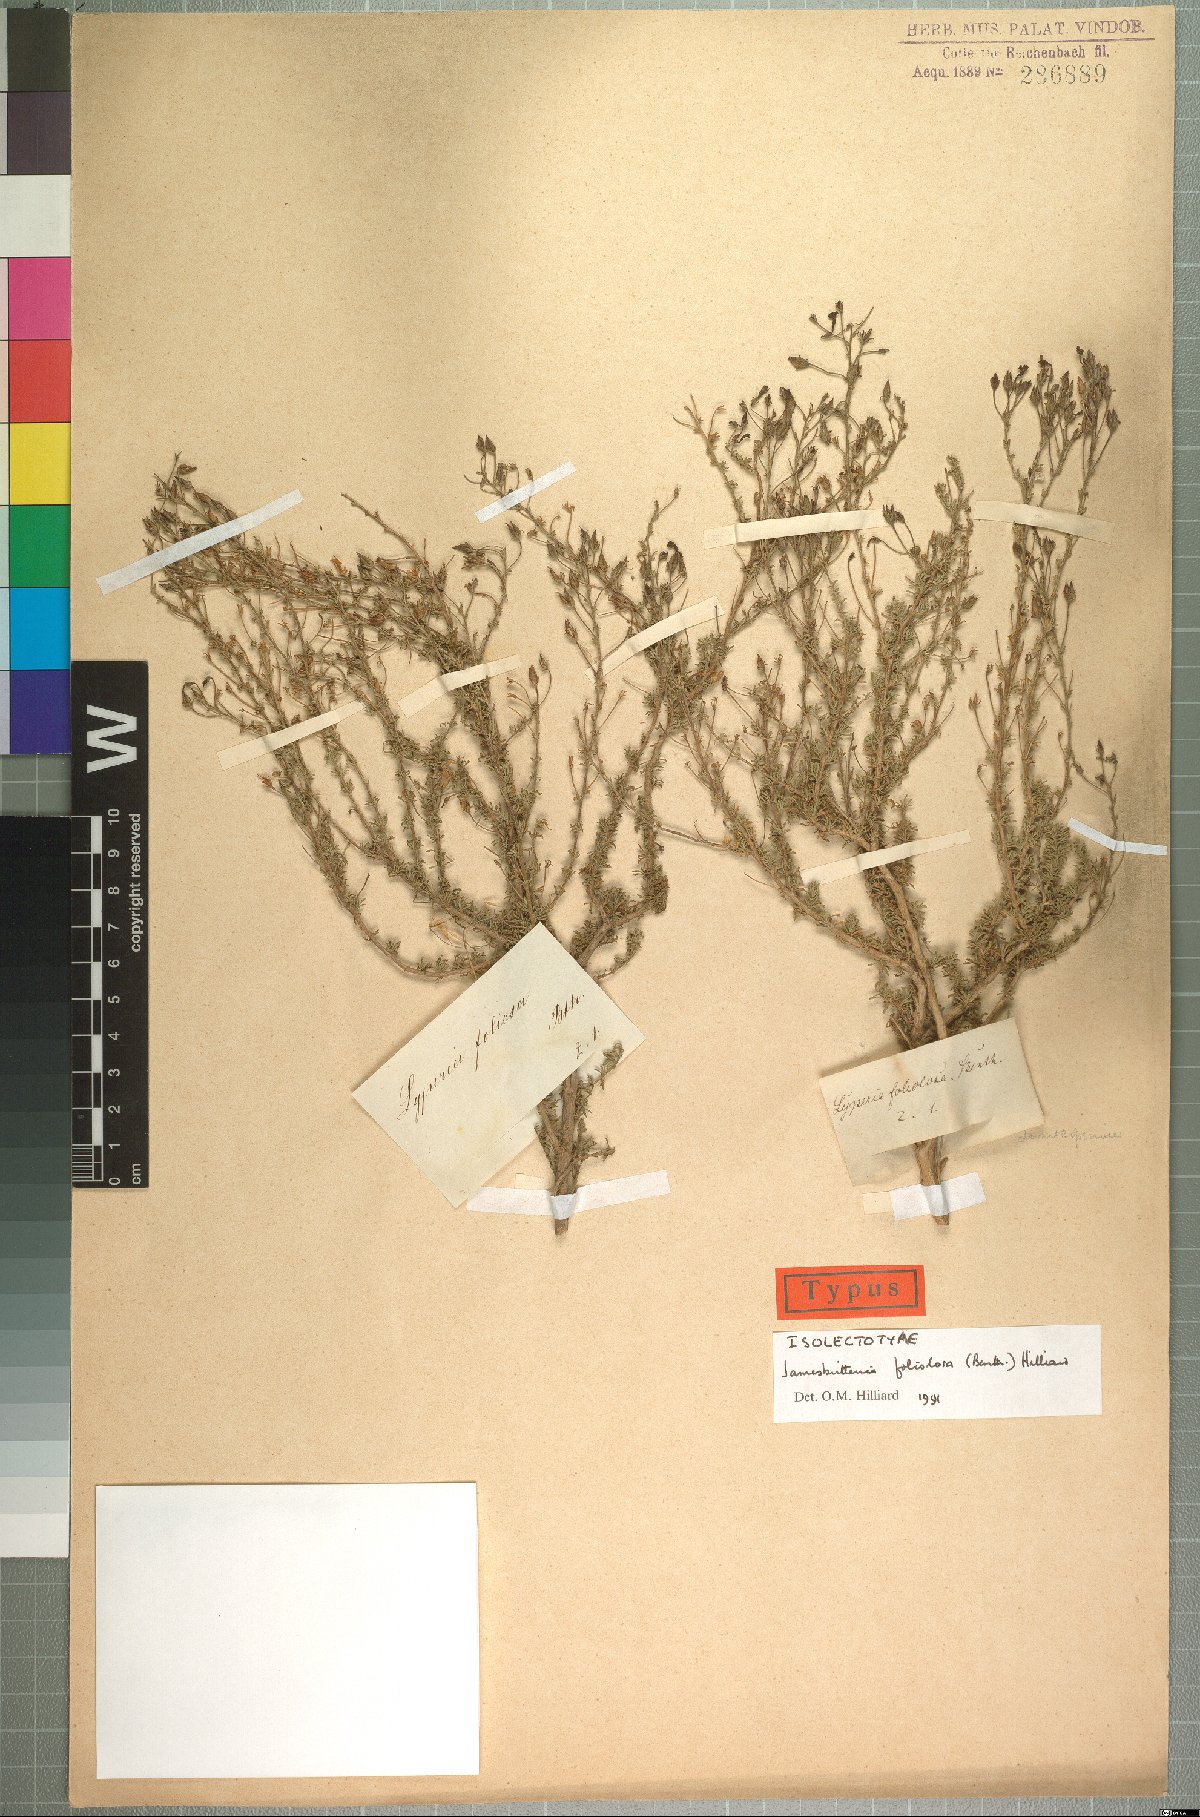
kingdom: Plantae
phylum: Tracheophyta
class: Magnoliopsida
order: Lamiales
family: Scrophulariaceae
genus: Jamesbrittenia
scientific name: Jamesbrittenia foliolosa
